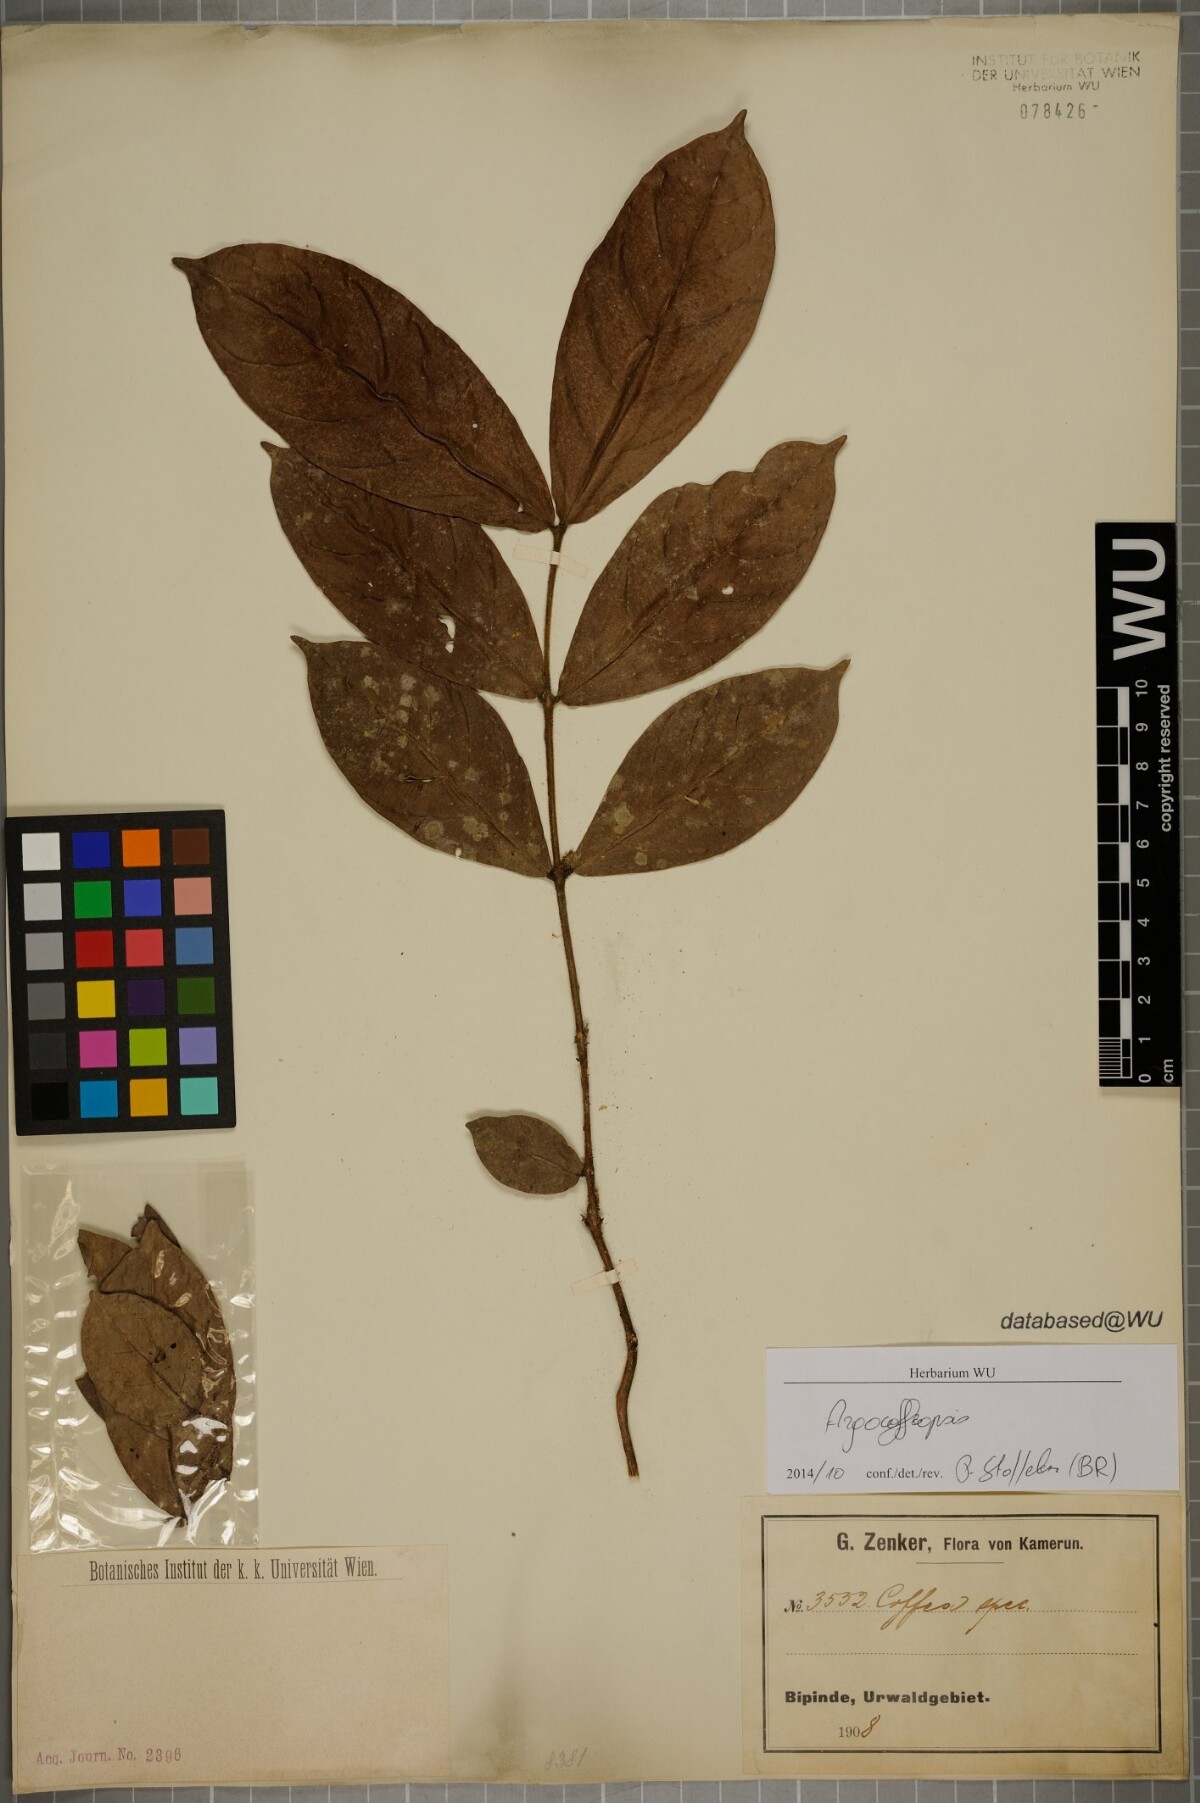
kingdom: Plantae
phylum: Tracheophyta
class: Magnoliopsida
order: Gentianales
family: Rubiaceae
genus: Argocoffeopsis
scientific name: Argocoffeopsis
